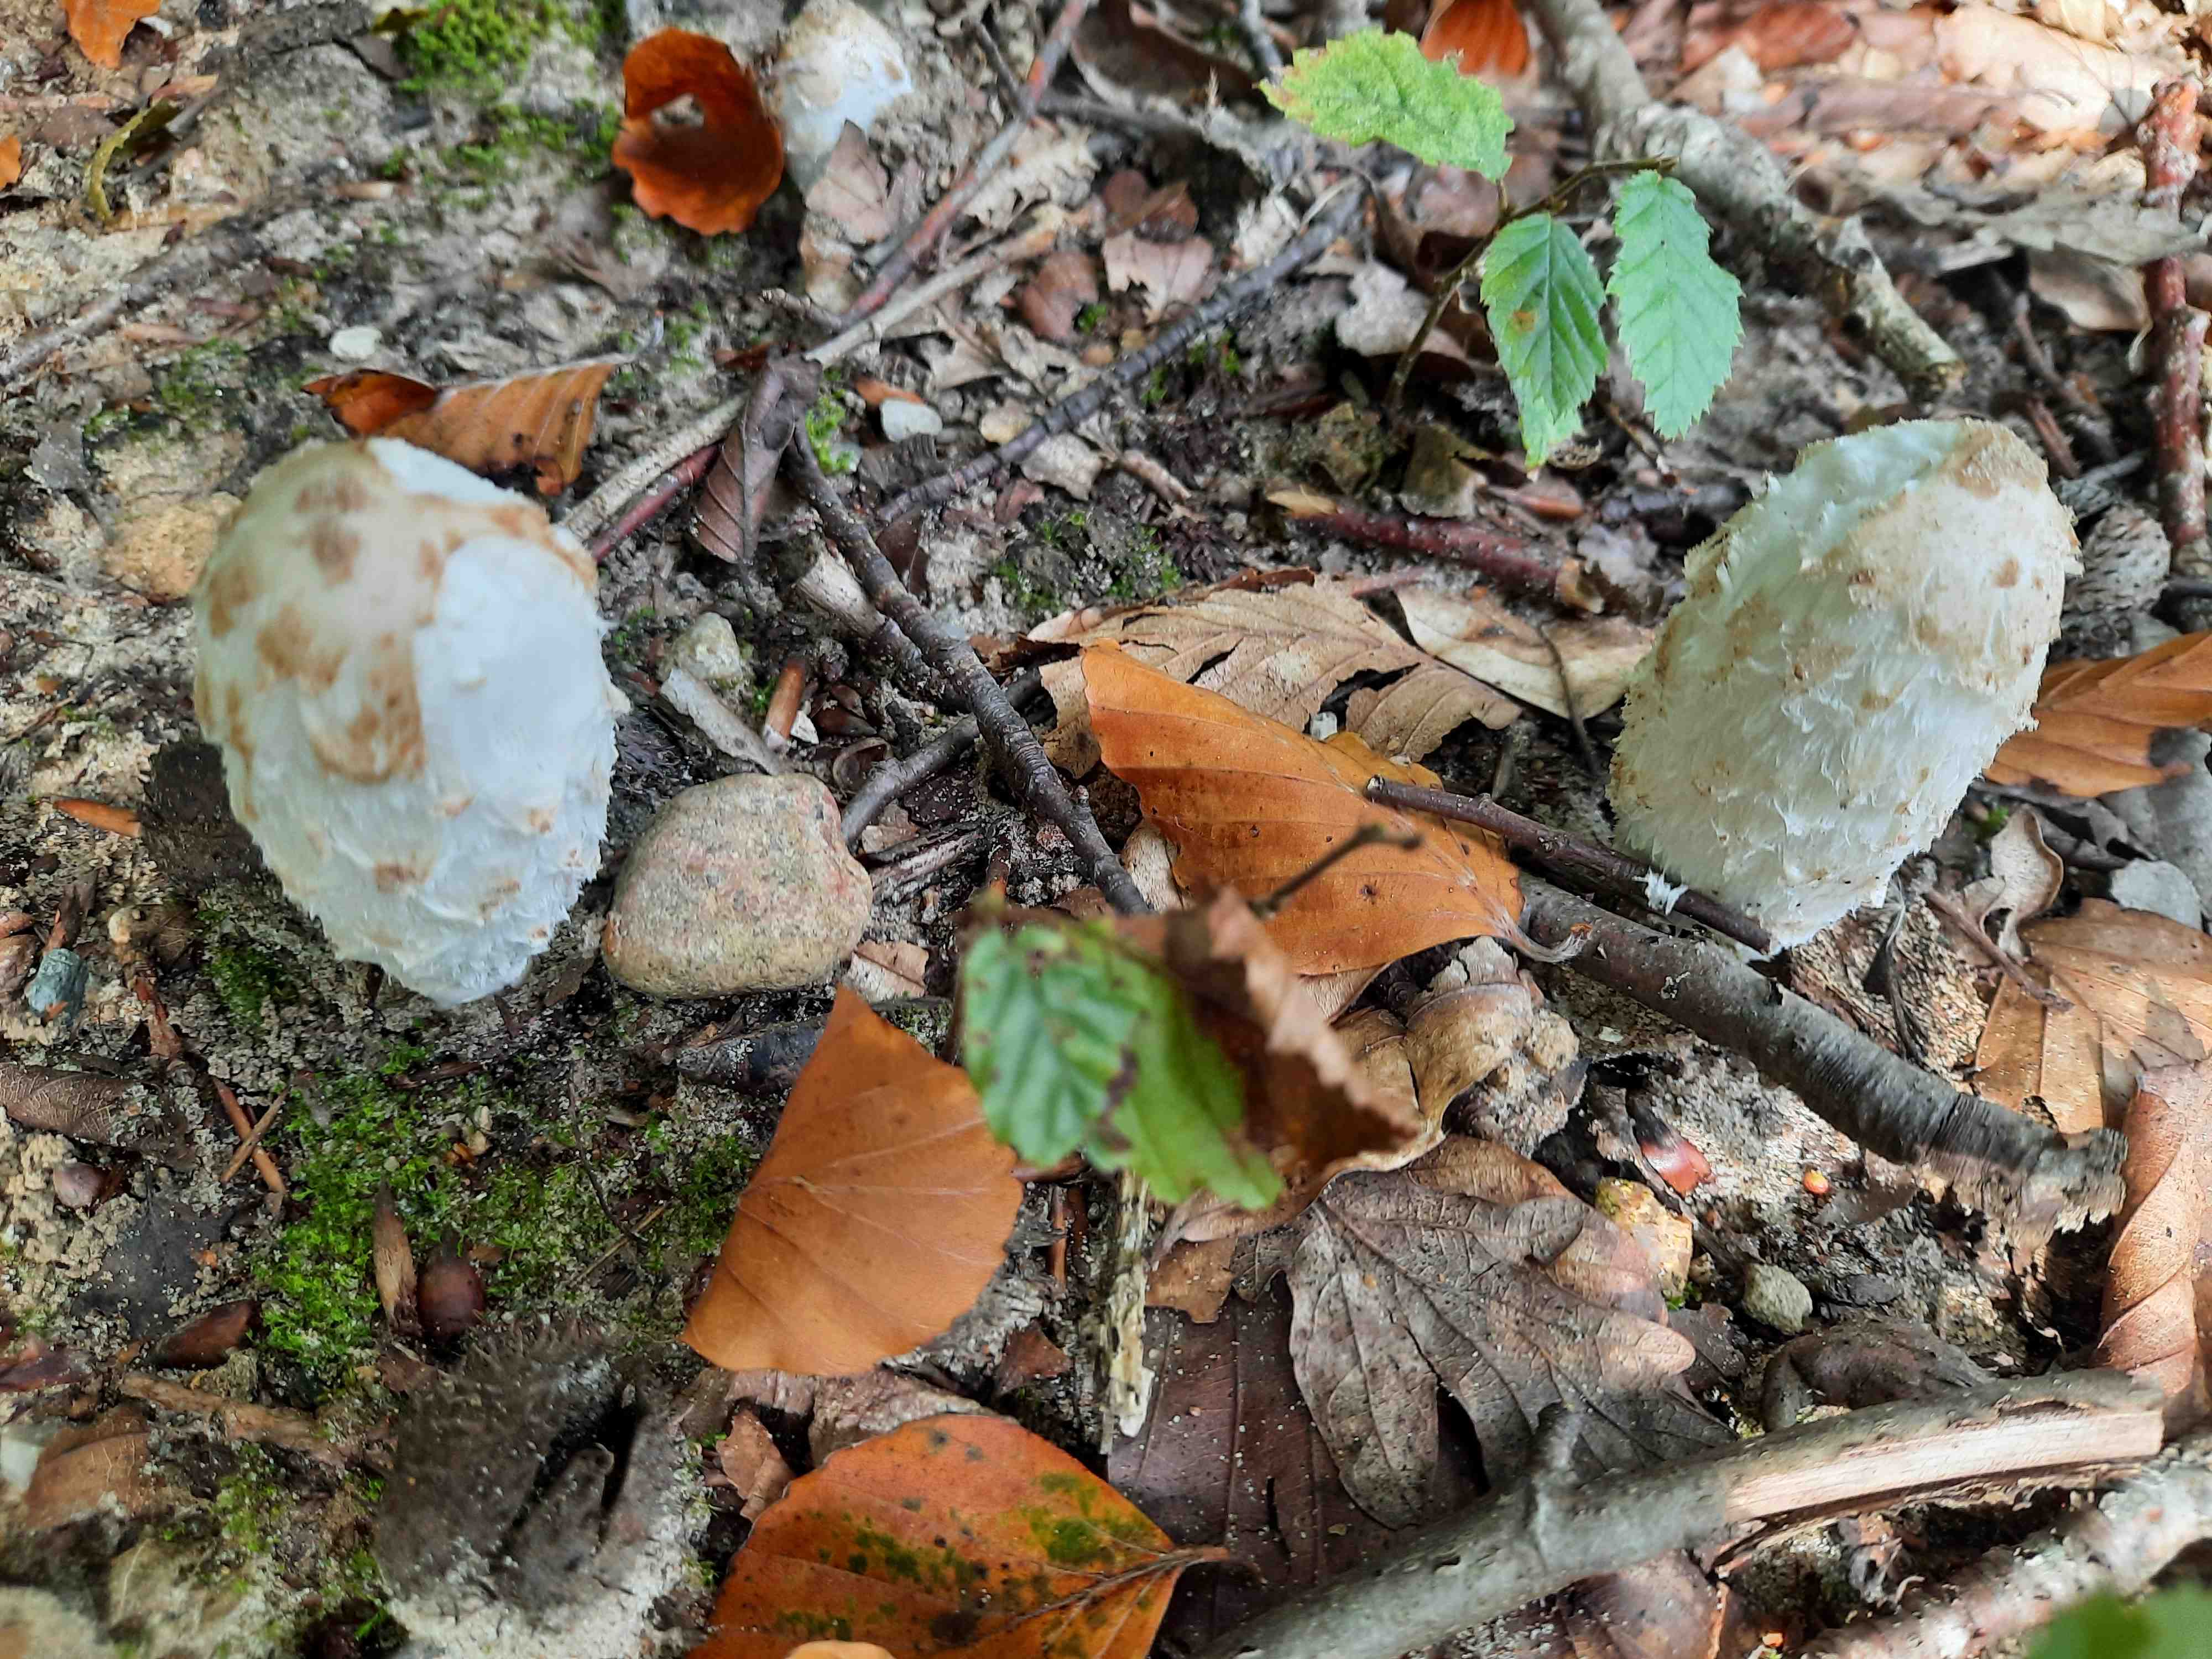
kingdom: Fungi
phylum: Basidiomycota
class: Agaricomycetes
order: Agaricales
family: Agaricaceae
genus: Coprinus
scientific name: Coprinus comatus
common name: stor parykhat
